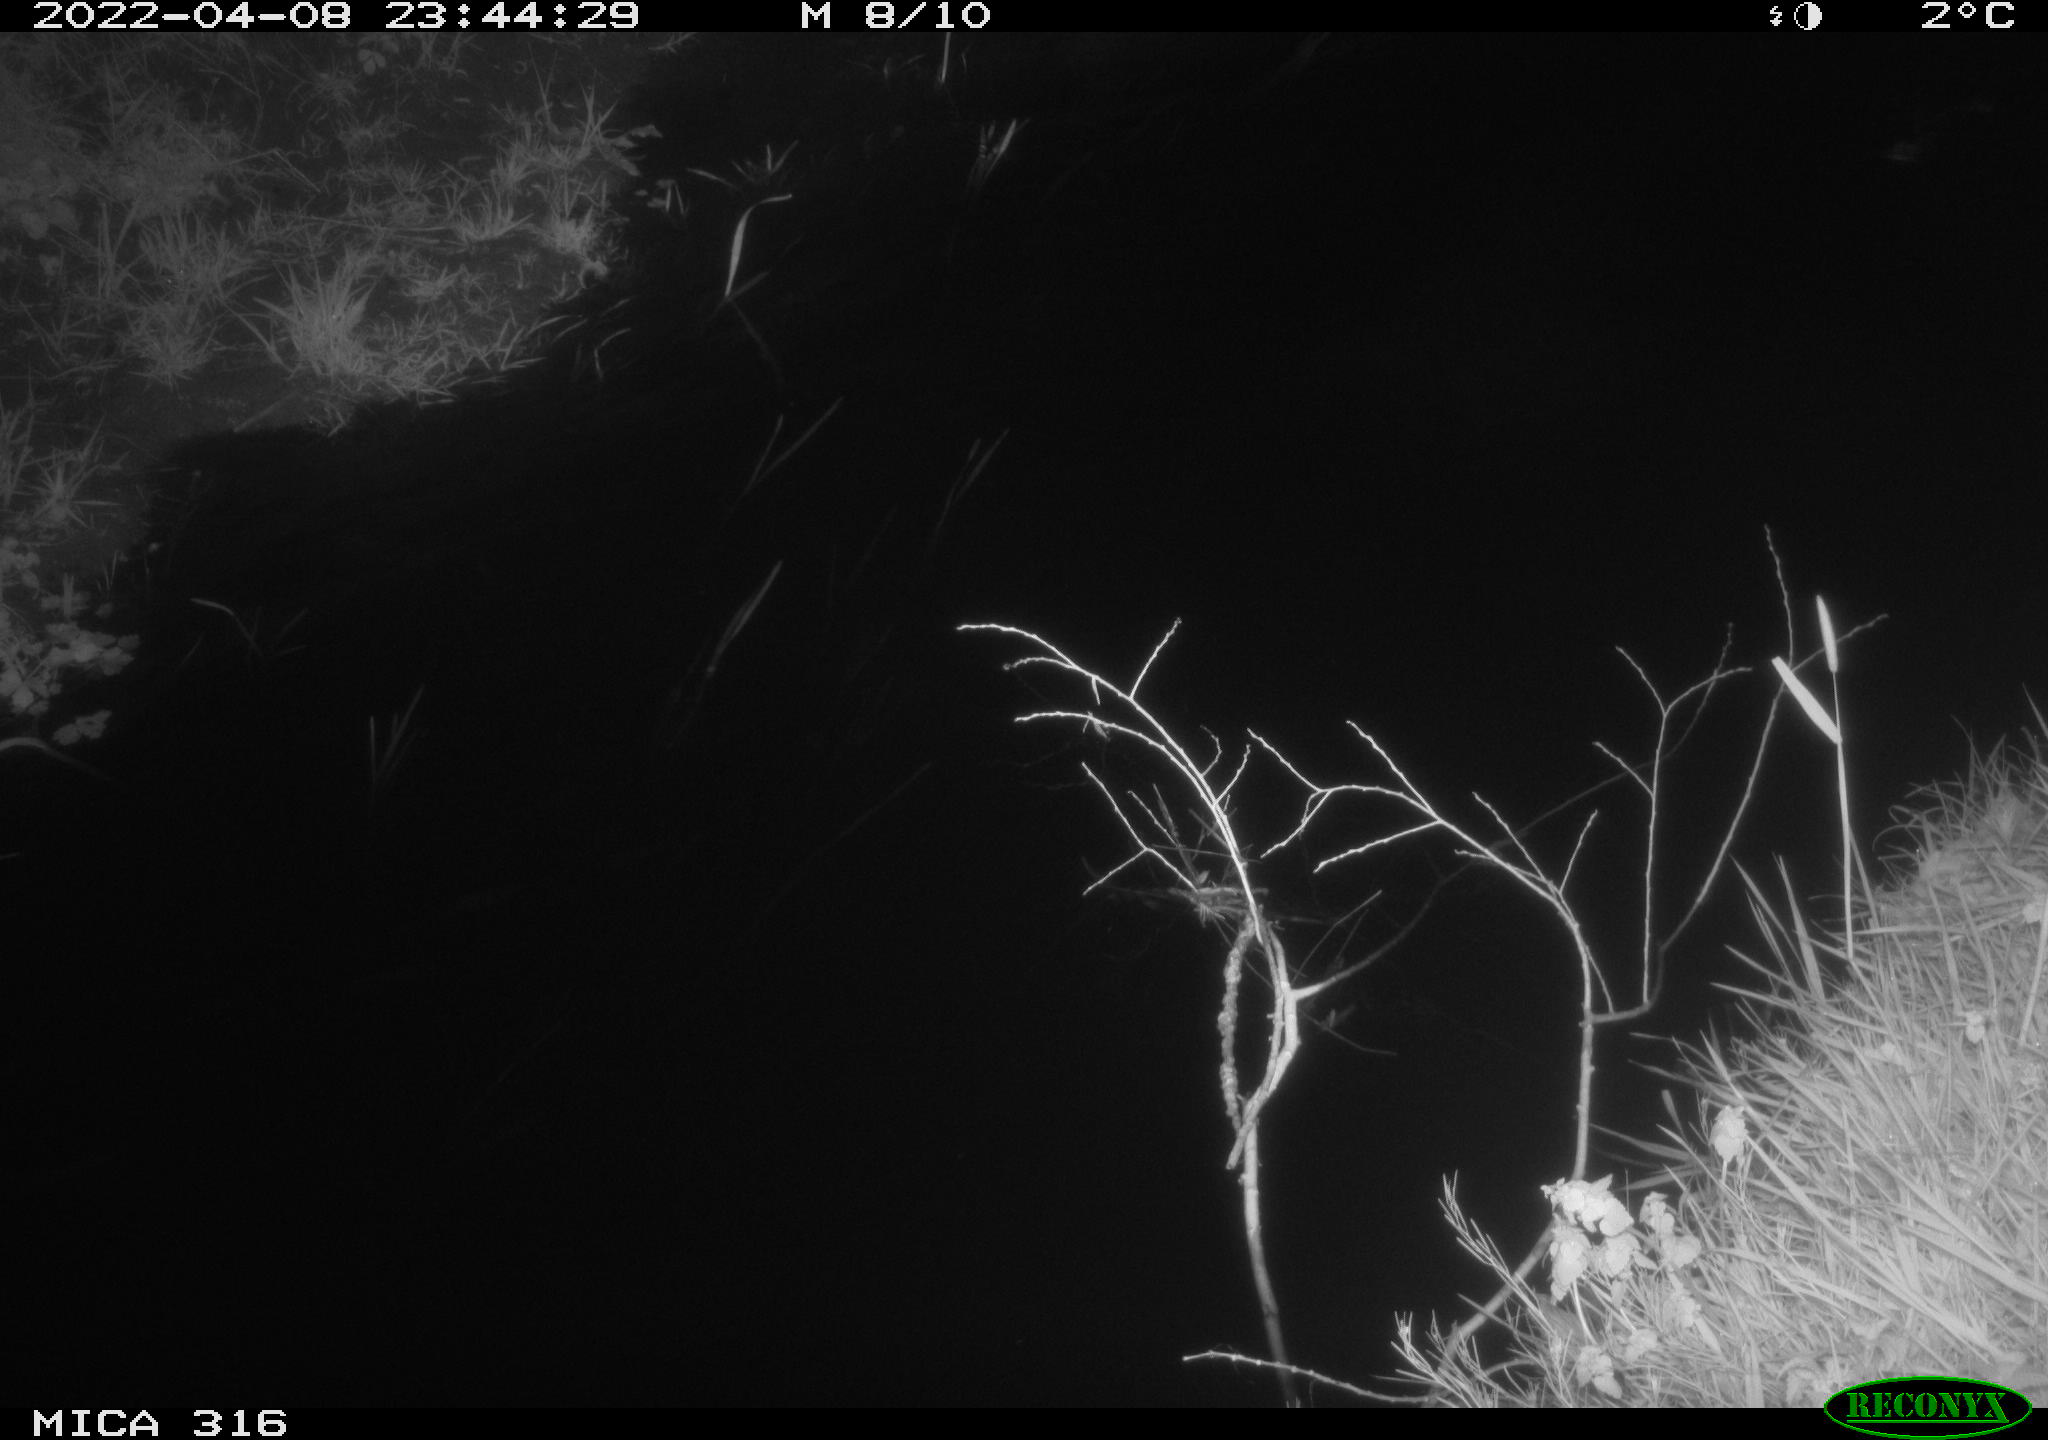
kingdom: Animalia
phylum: Chordata
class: Aves
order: Anseriformes
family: Anatidae
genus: Anas
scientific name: Anas platyrhynchos
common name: Mallard
